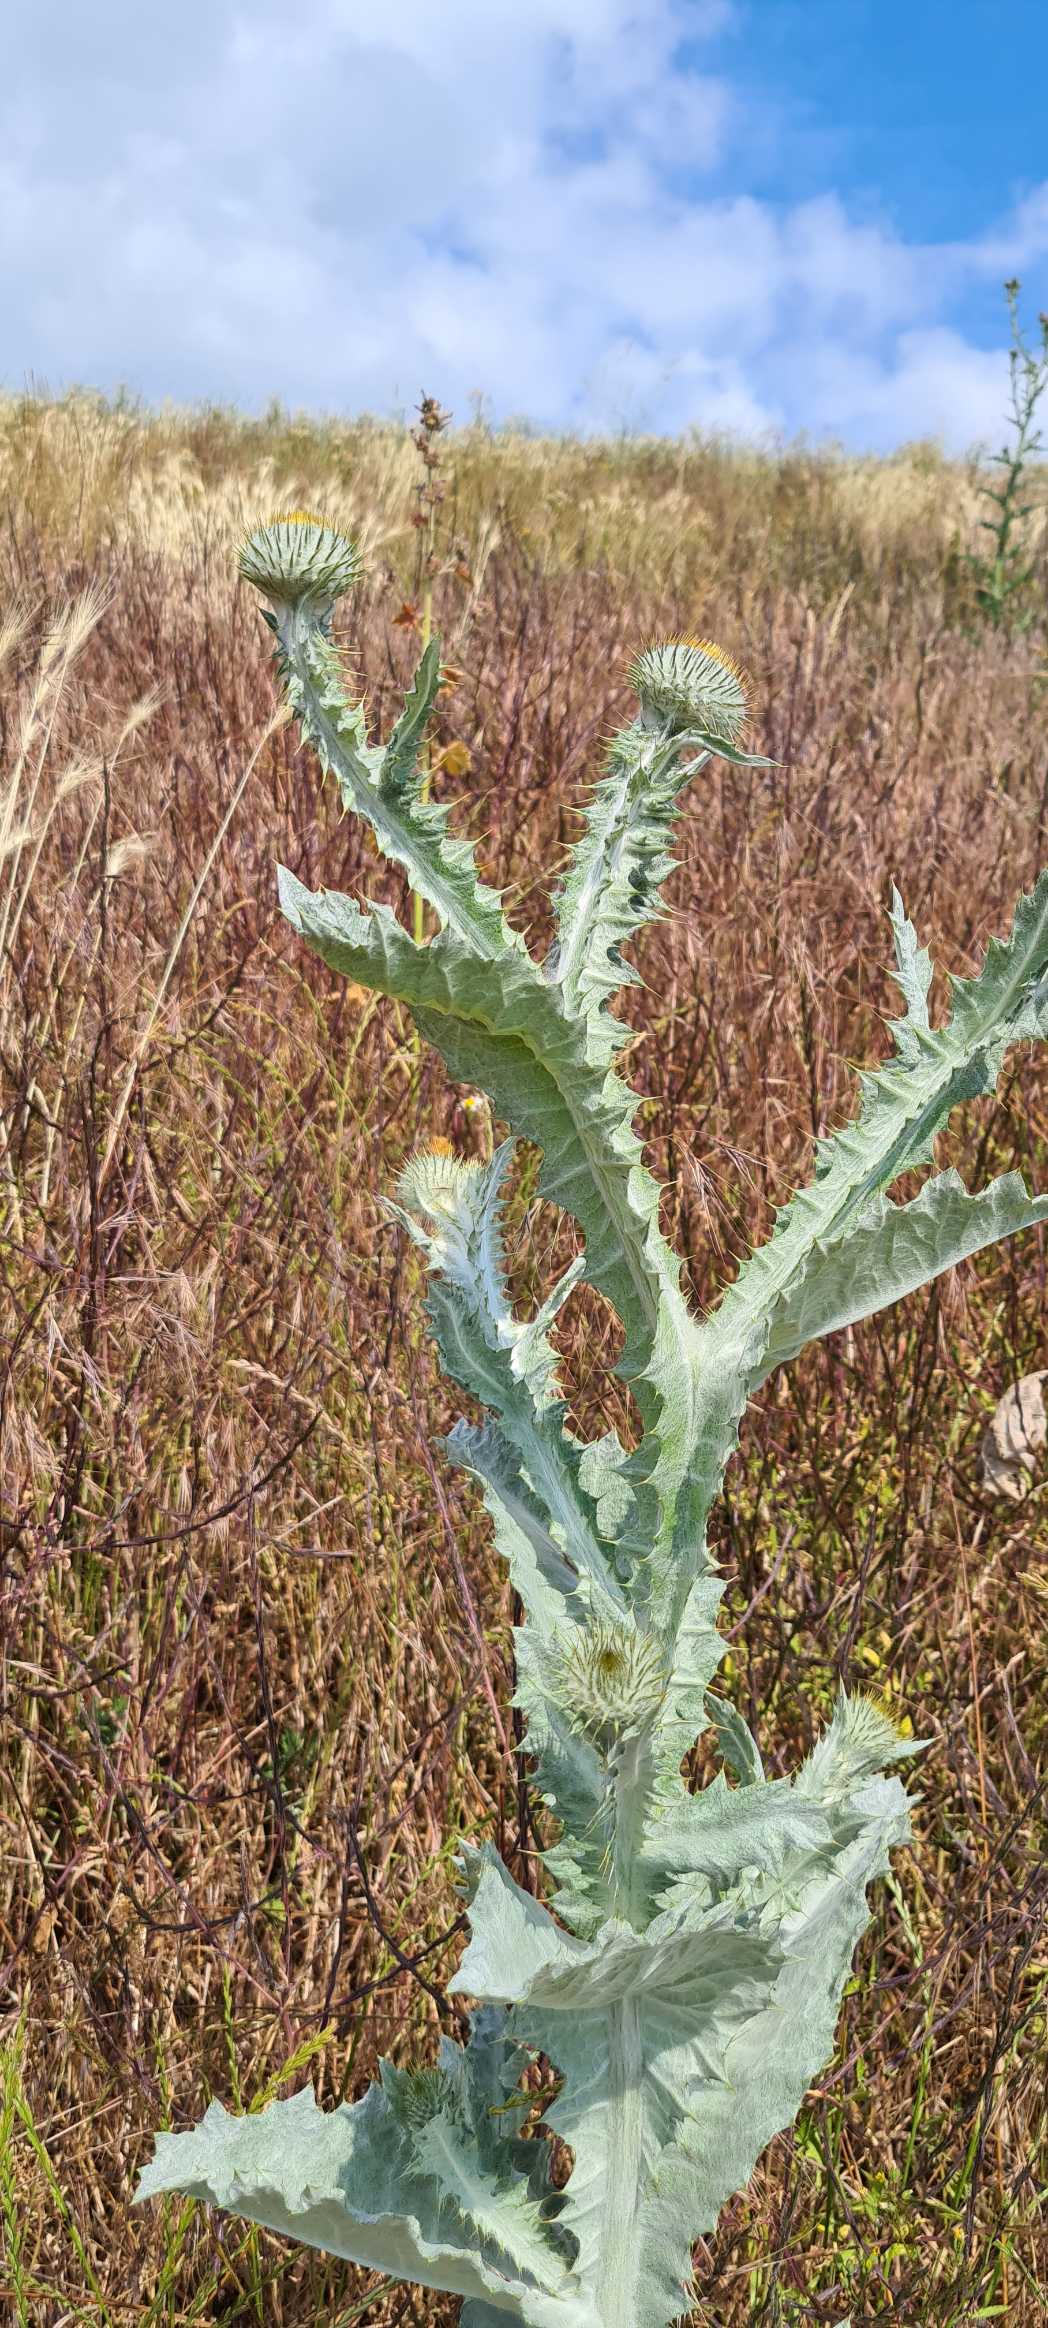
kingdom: Plantae
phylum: Tracheophyta
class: Magnoliopsida
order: Asterales
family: Asteraceae
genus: Onopordum
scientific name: Onopordum acanthium
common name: Æselfoder
